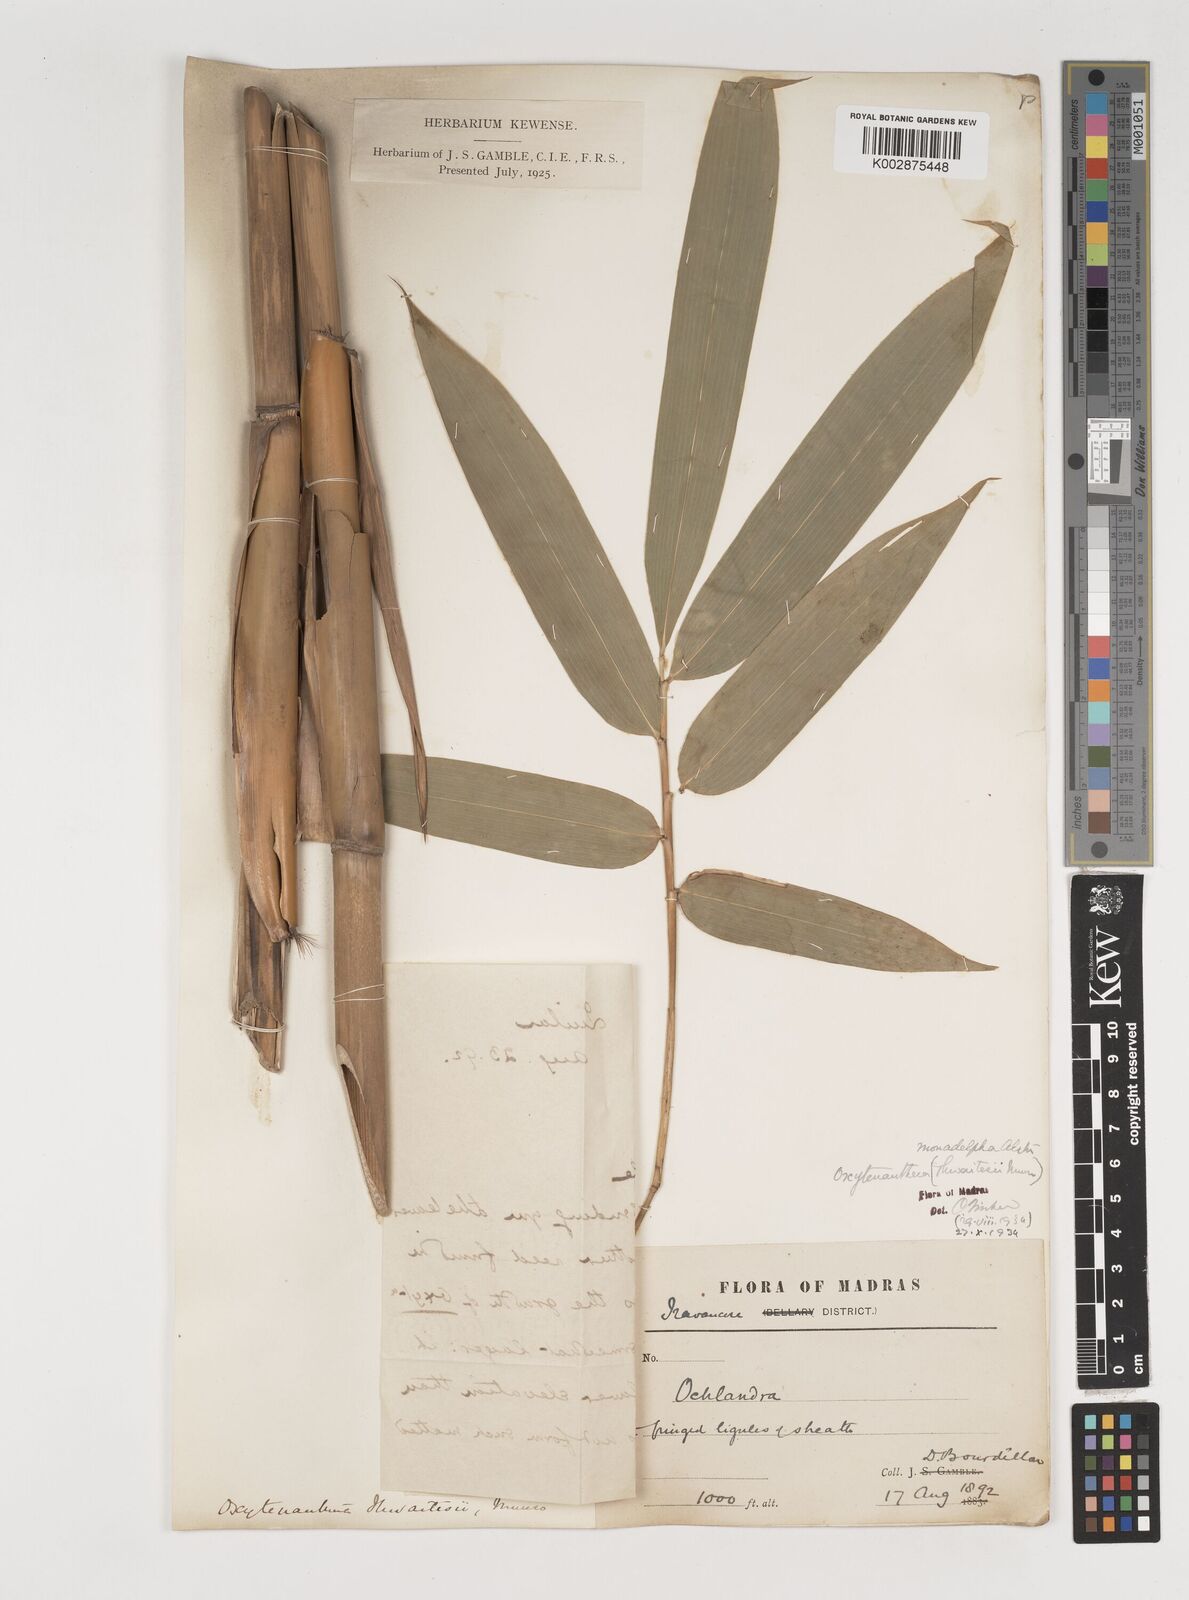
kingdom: Plantae
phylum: Tracheophyta
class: Liliopsida
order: Poales
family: Poaceae
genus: Pseudoxytenanthera
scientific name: Pseudoxytenanthera monadelpha
